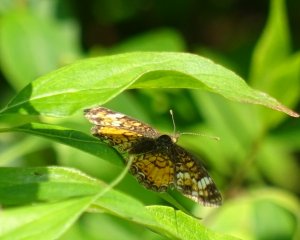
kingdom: Animalia
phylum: Arthropoda
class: Insecta
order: Lepidoptera
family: Nymphalidae
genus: Phyciodes
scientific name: Phyciodes tharos
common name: Northern Crescent
